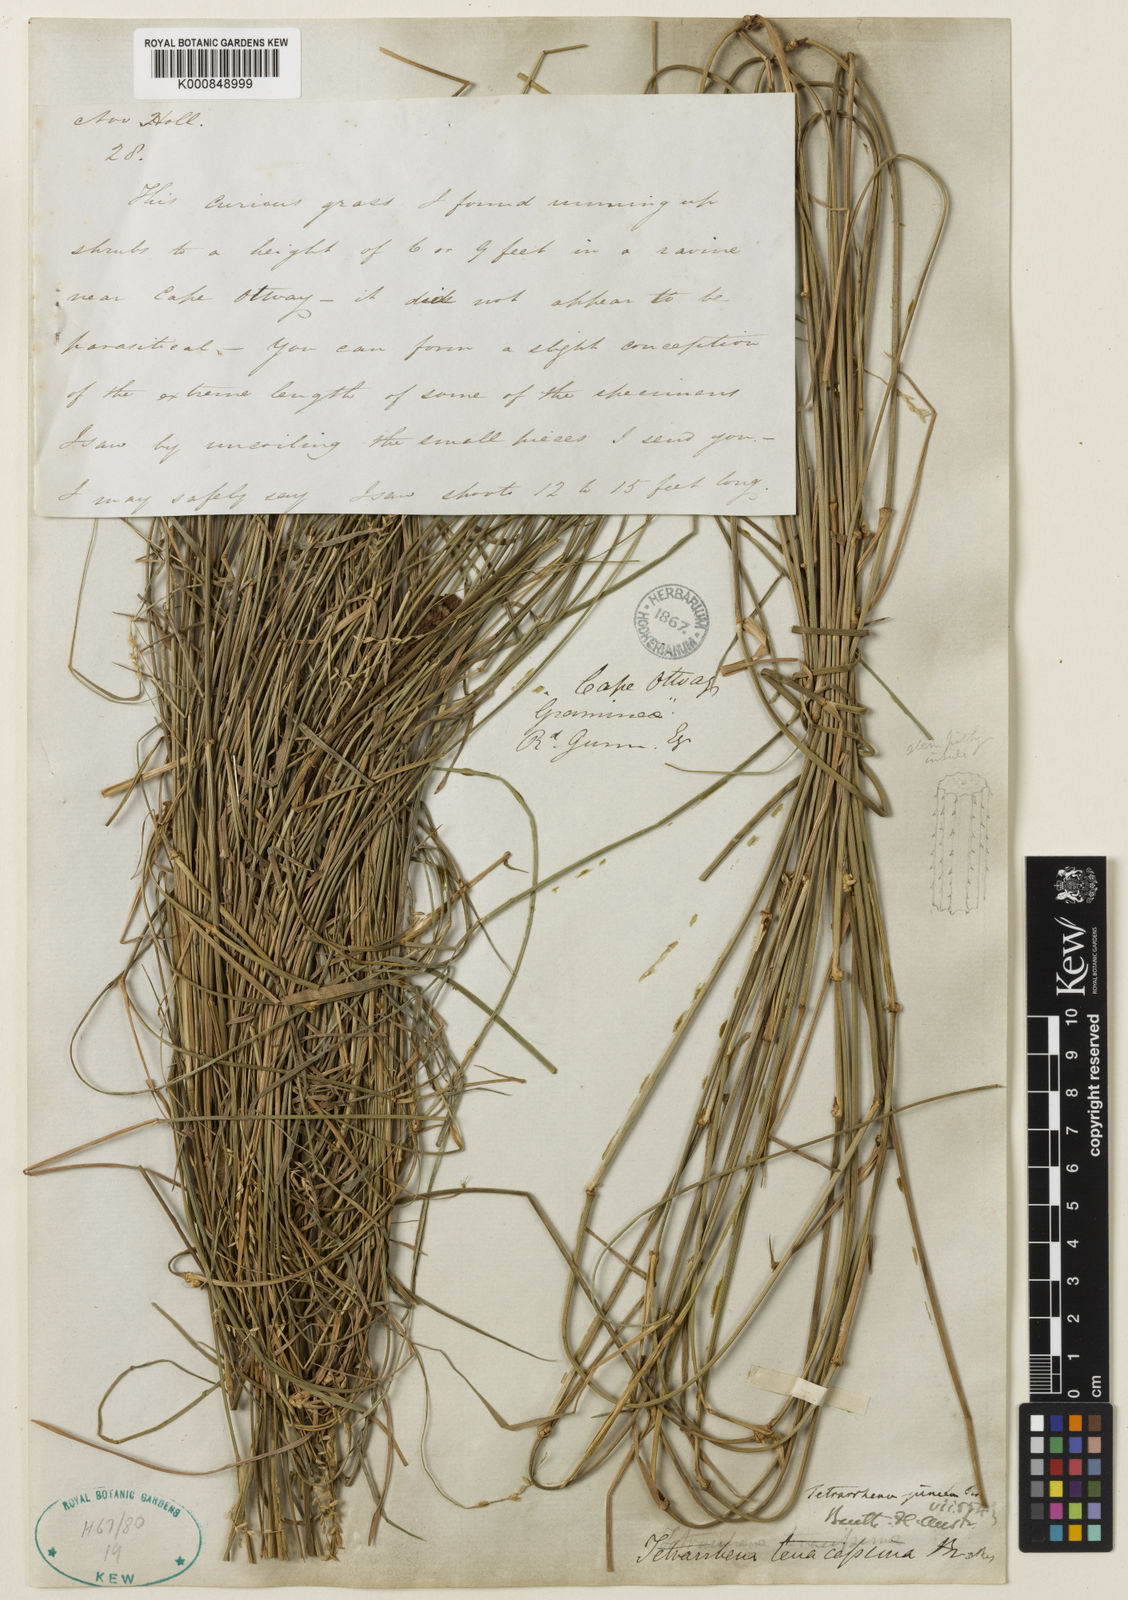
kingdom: Plantae
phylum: Tracheophyta
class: Liliopsida
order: Poales
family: Poaceae
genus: Tetrarrhena
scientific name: Tetrarrhena juncea
